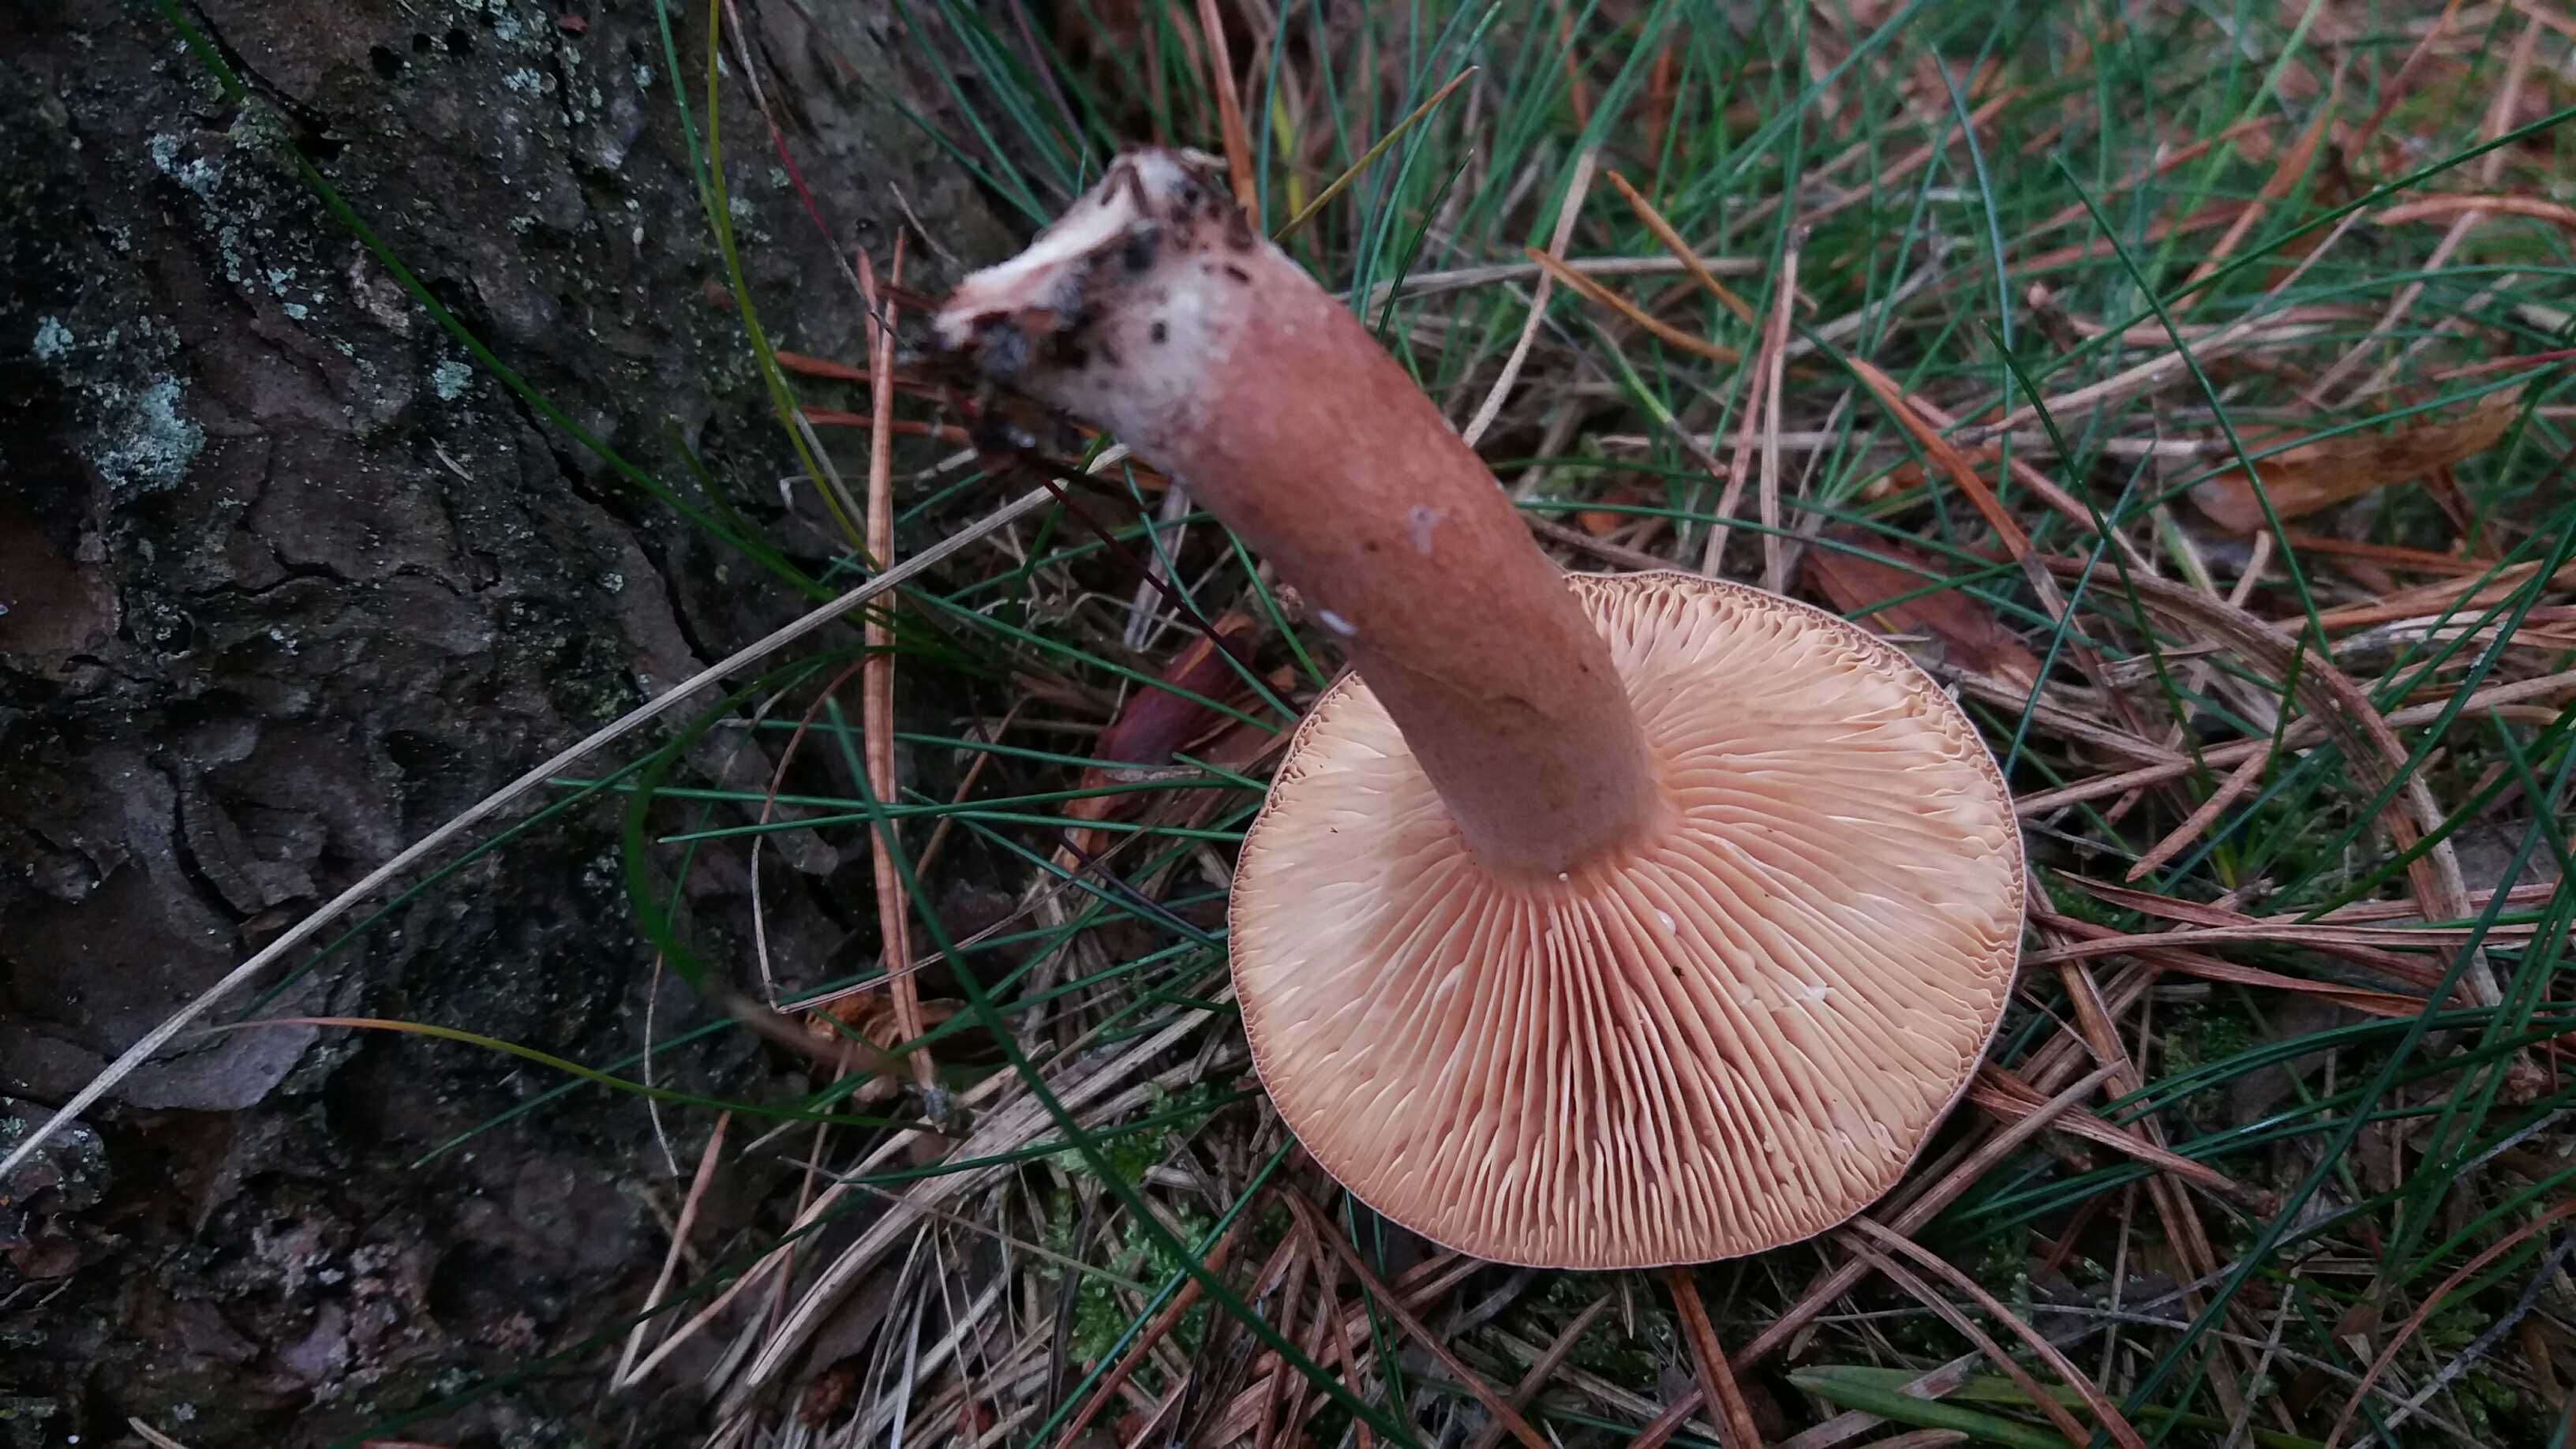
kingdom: Fungi
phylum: Basidiomycota
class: Agaricomycetes
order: Russulales
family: Russulaceae
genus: Lactarius
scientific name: Lactarius hepaticus
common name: leverbrun mælkehat
